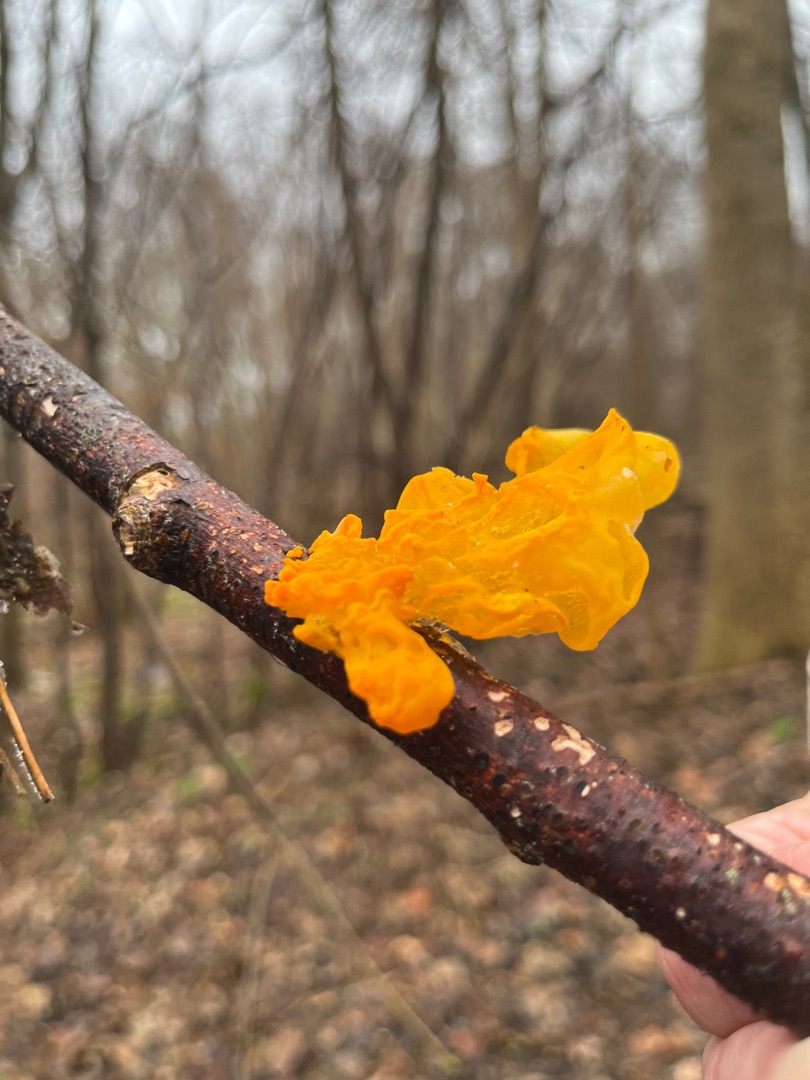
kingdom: Fungi
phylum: Basidiomycota
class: Tremellomycetes
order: Tremellales
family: Tremellaceae
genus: Tremella
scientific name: Tremella mesenterica
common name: Gul bævresvamp
